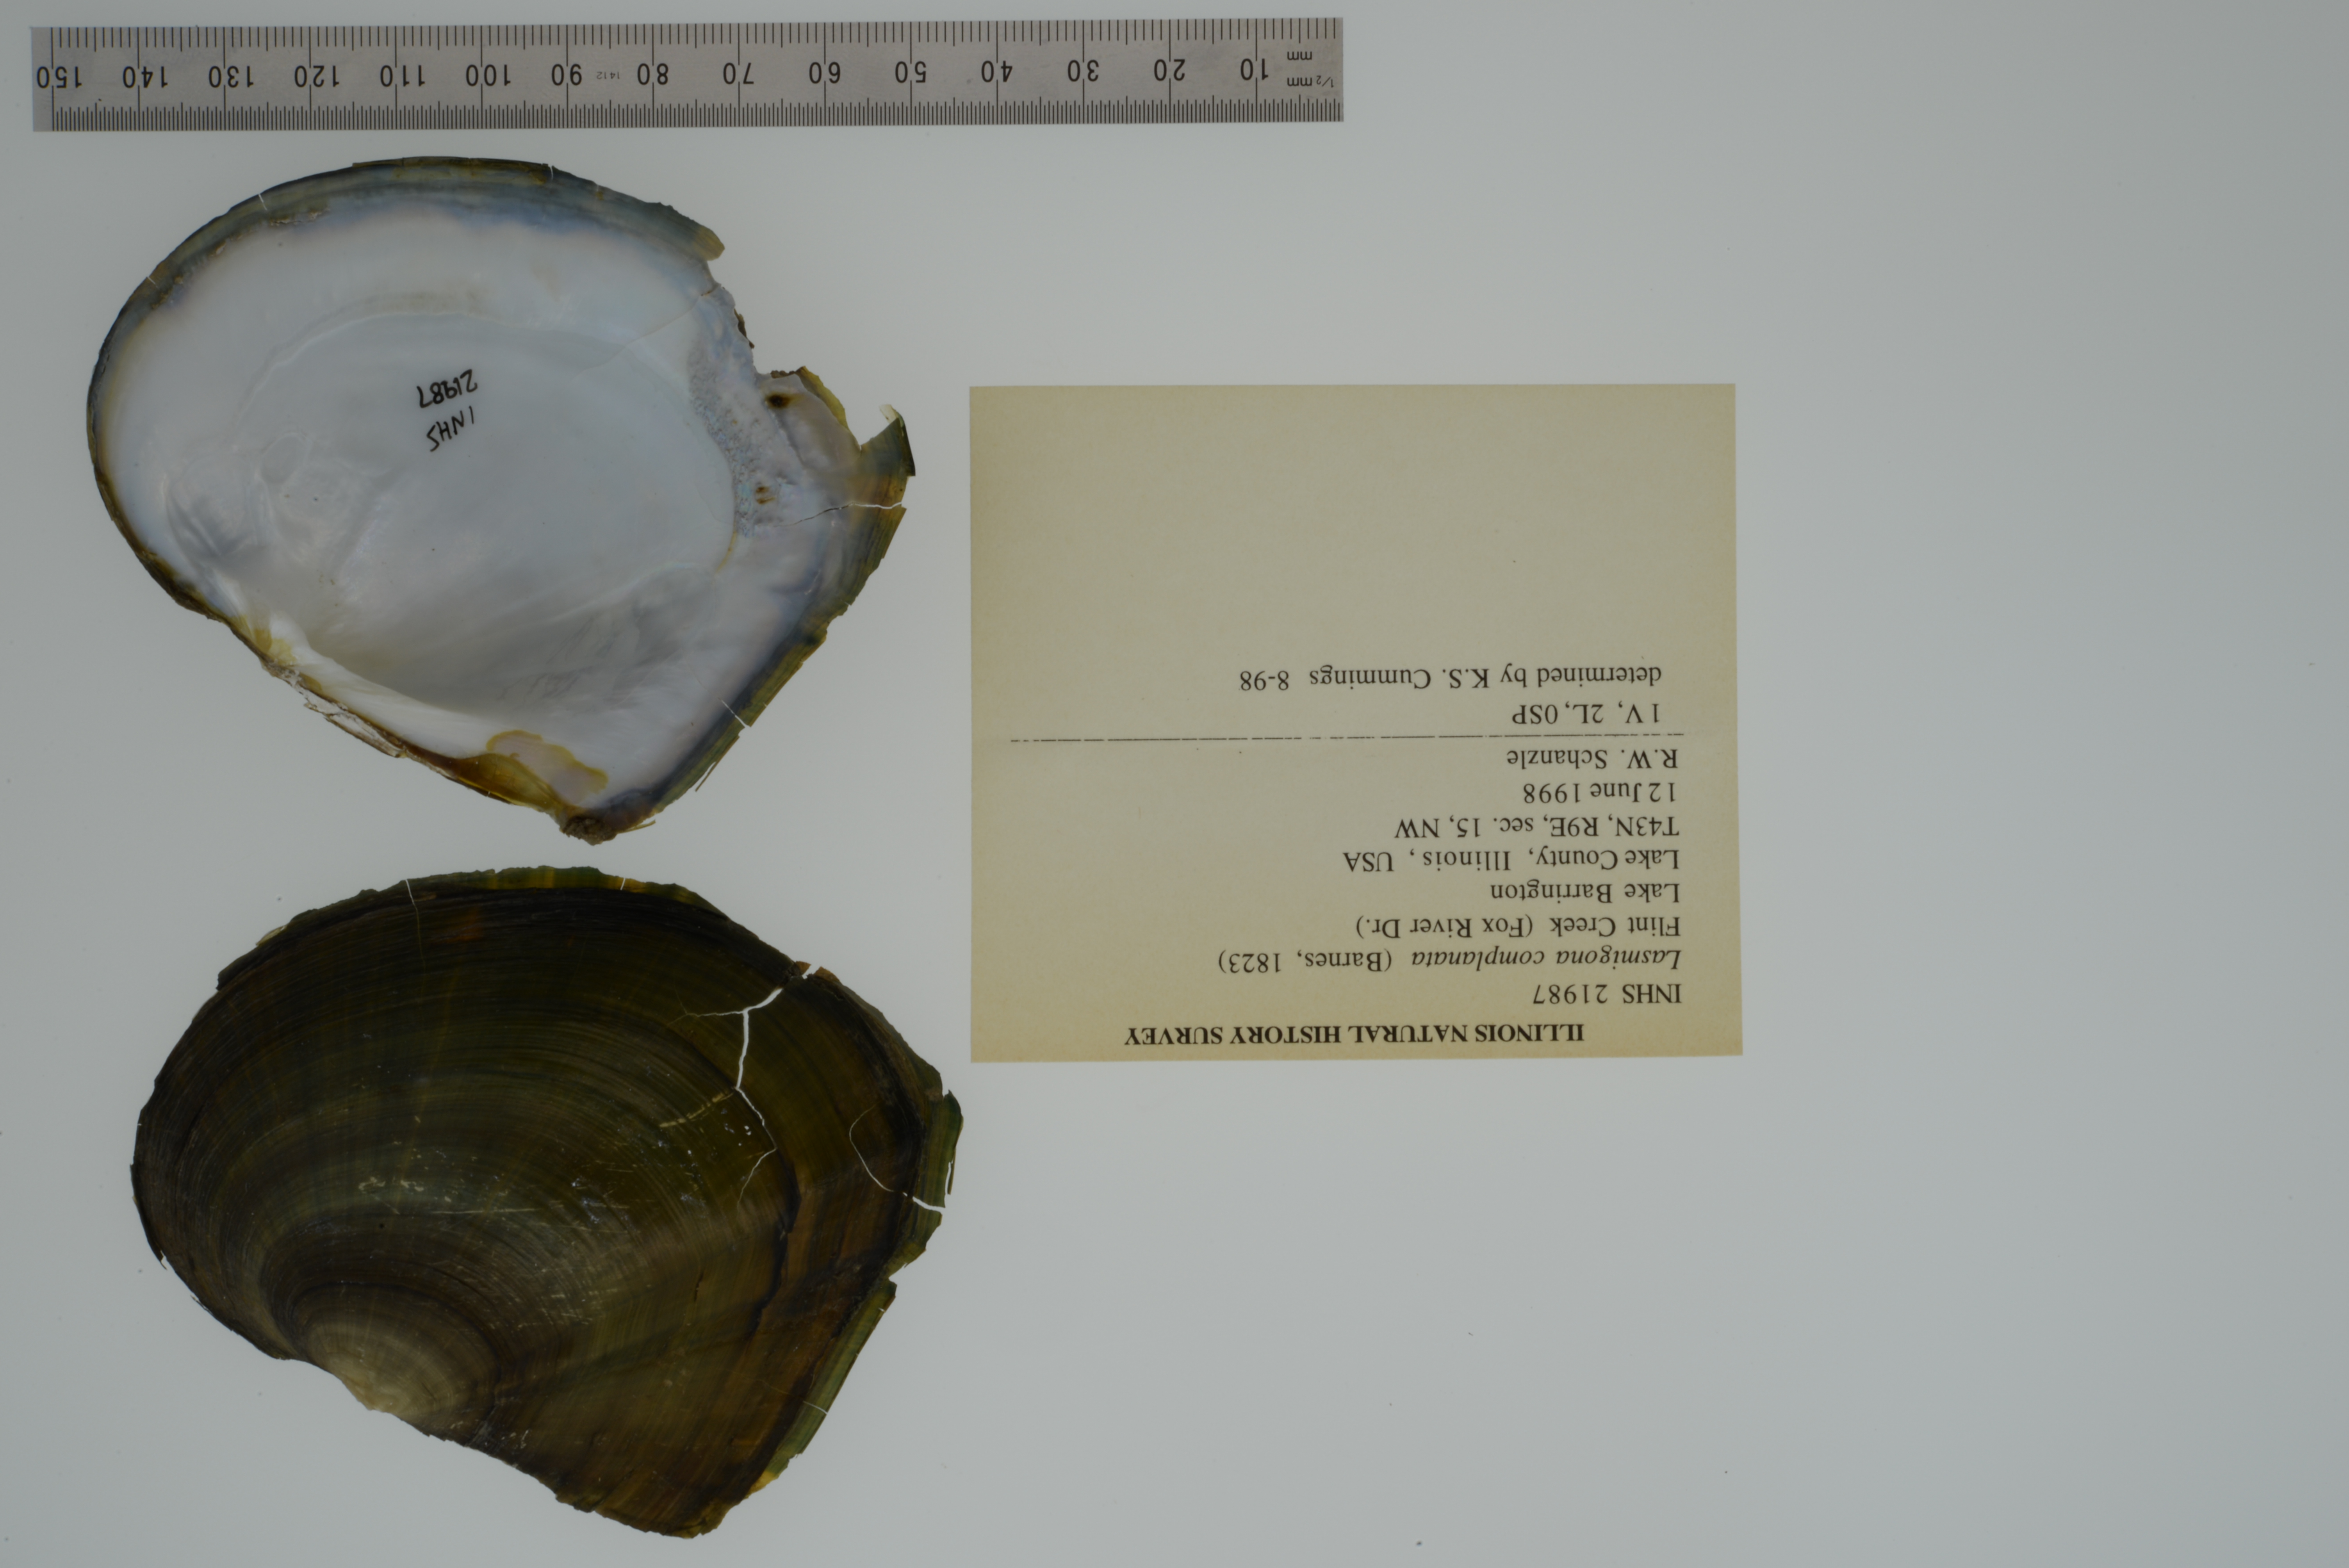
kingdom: Animalia
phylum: Mollusca
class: Bivalvia
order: Unionida
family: Unionidae
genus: Lasmigona
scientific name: Lasmigona complanata
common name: White heelsplitter
